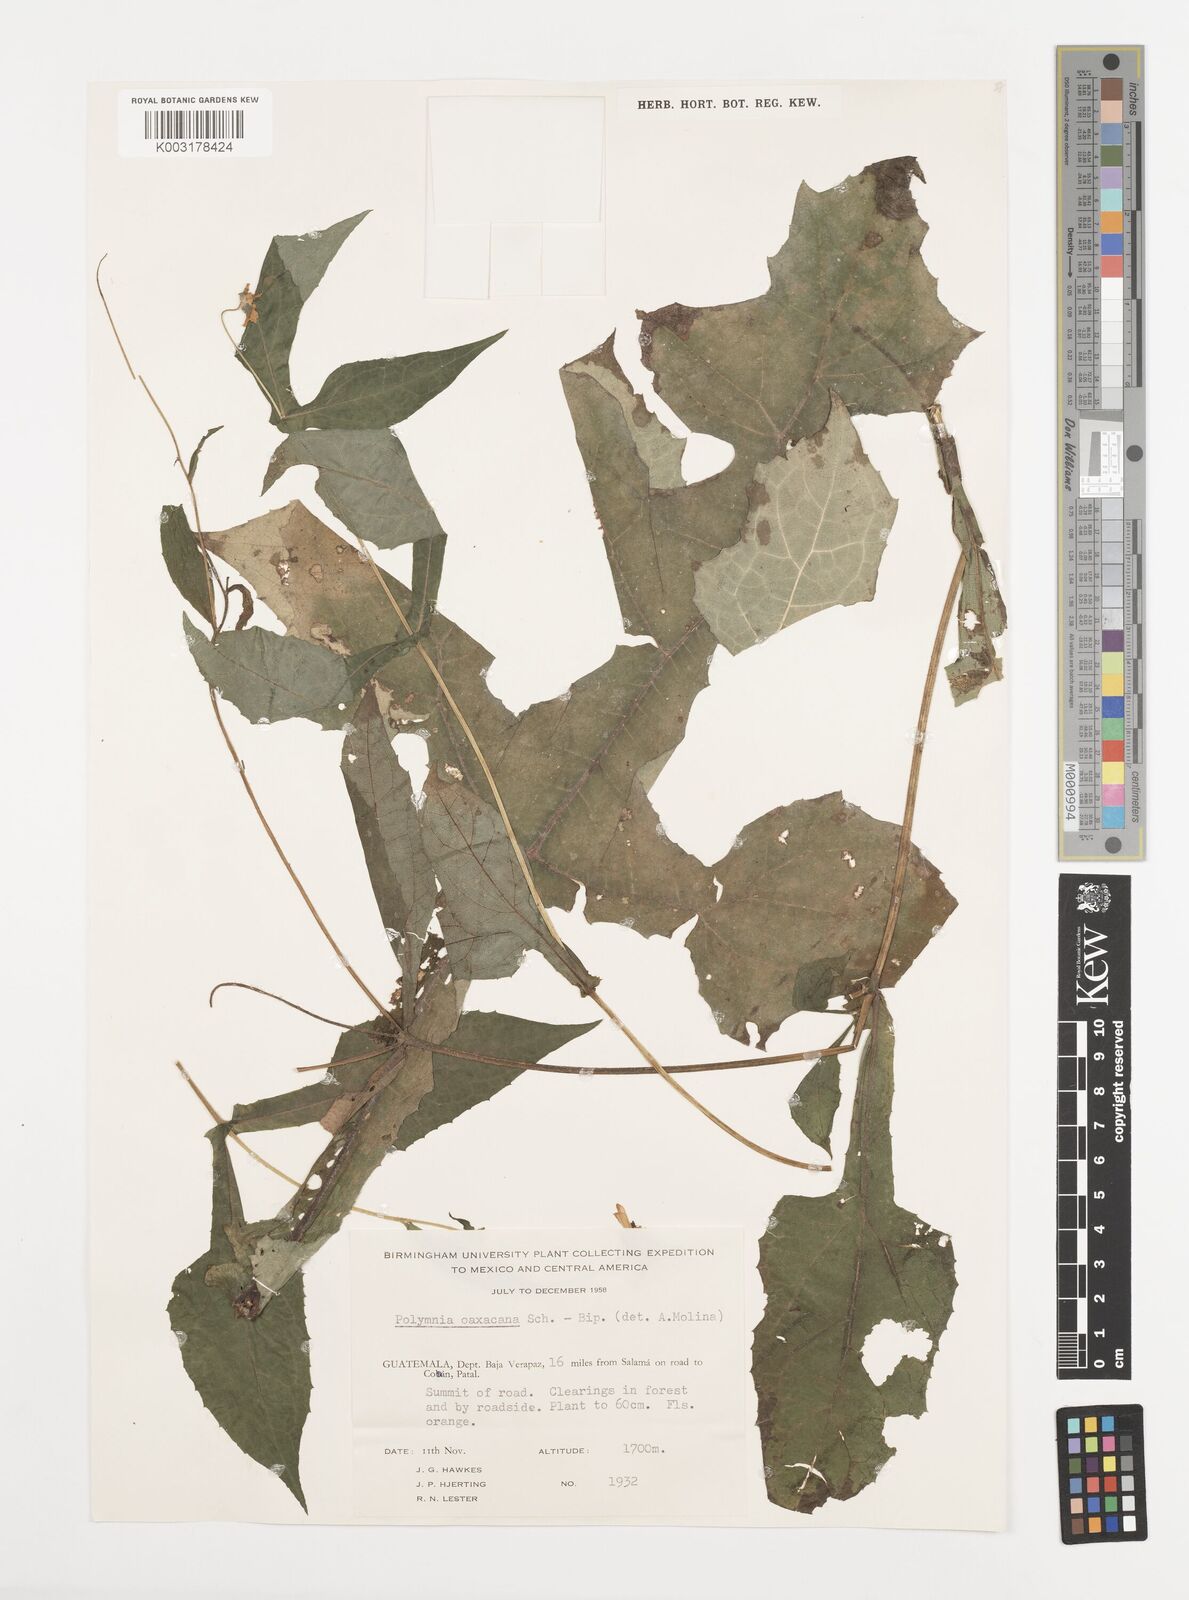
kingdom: Plantae
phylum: Tracheophyta
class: Magnoliopsida
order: Asterales
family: Asteraceae
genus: Smallanthus
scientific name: Smallanthus oaxacanus
